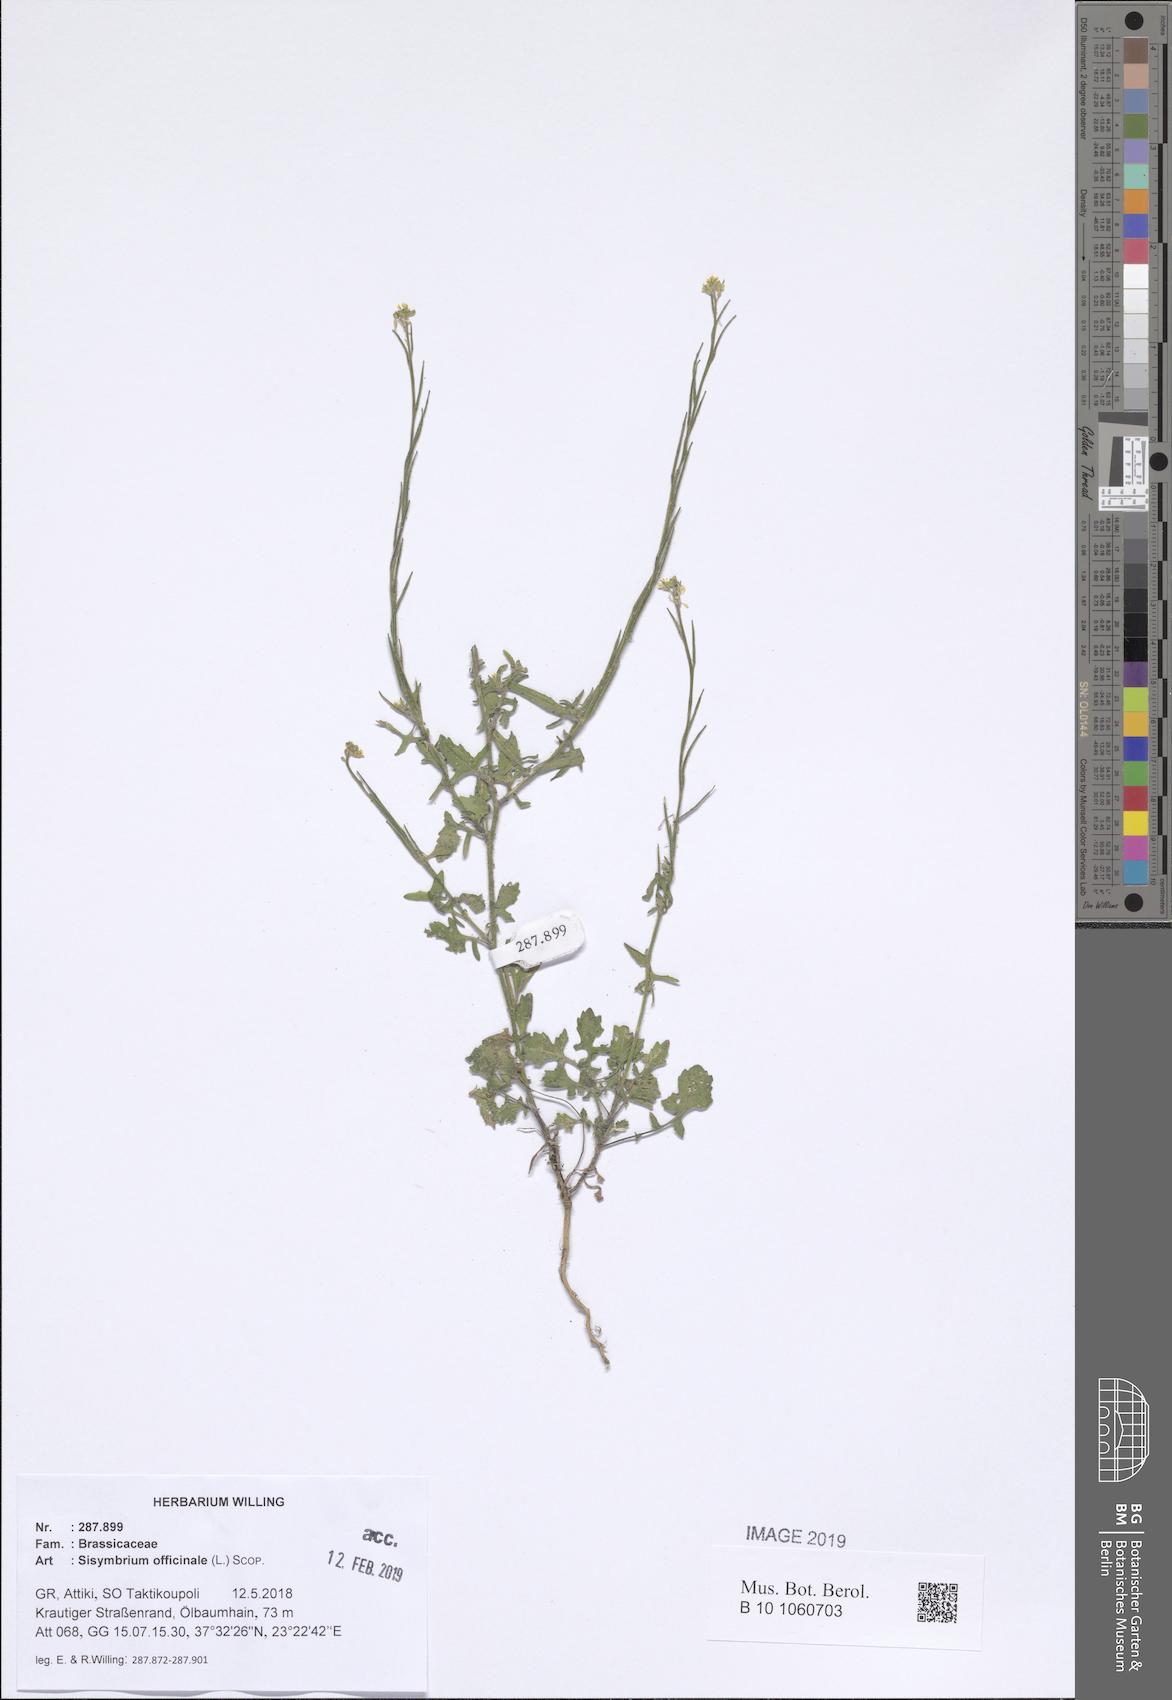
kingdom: Plantae
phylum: Tracheophyta
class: Magnoliopsida
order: Brassicales
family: Brassicaceae
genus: Sisymbrium
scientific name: Sisymbrium officinale
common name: Hedge mustard
